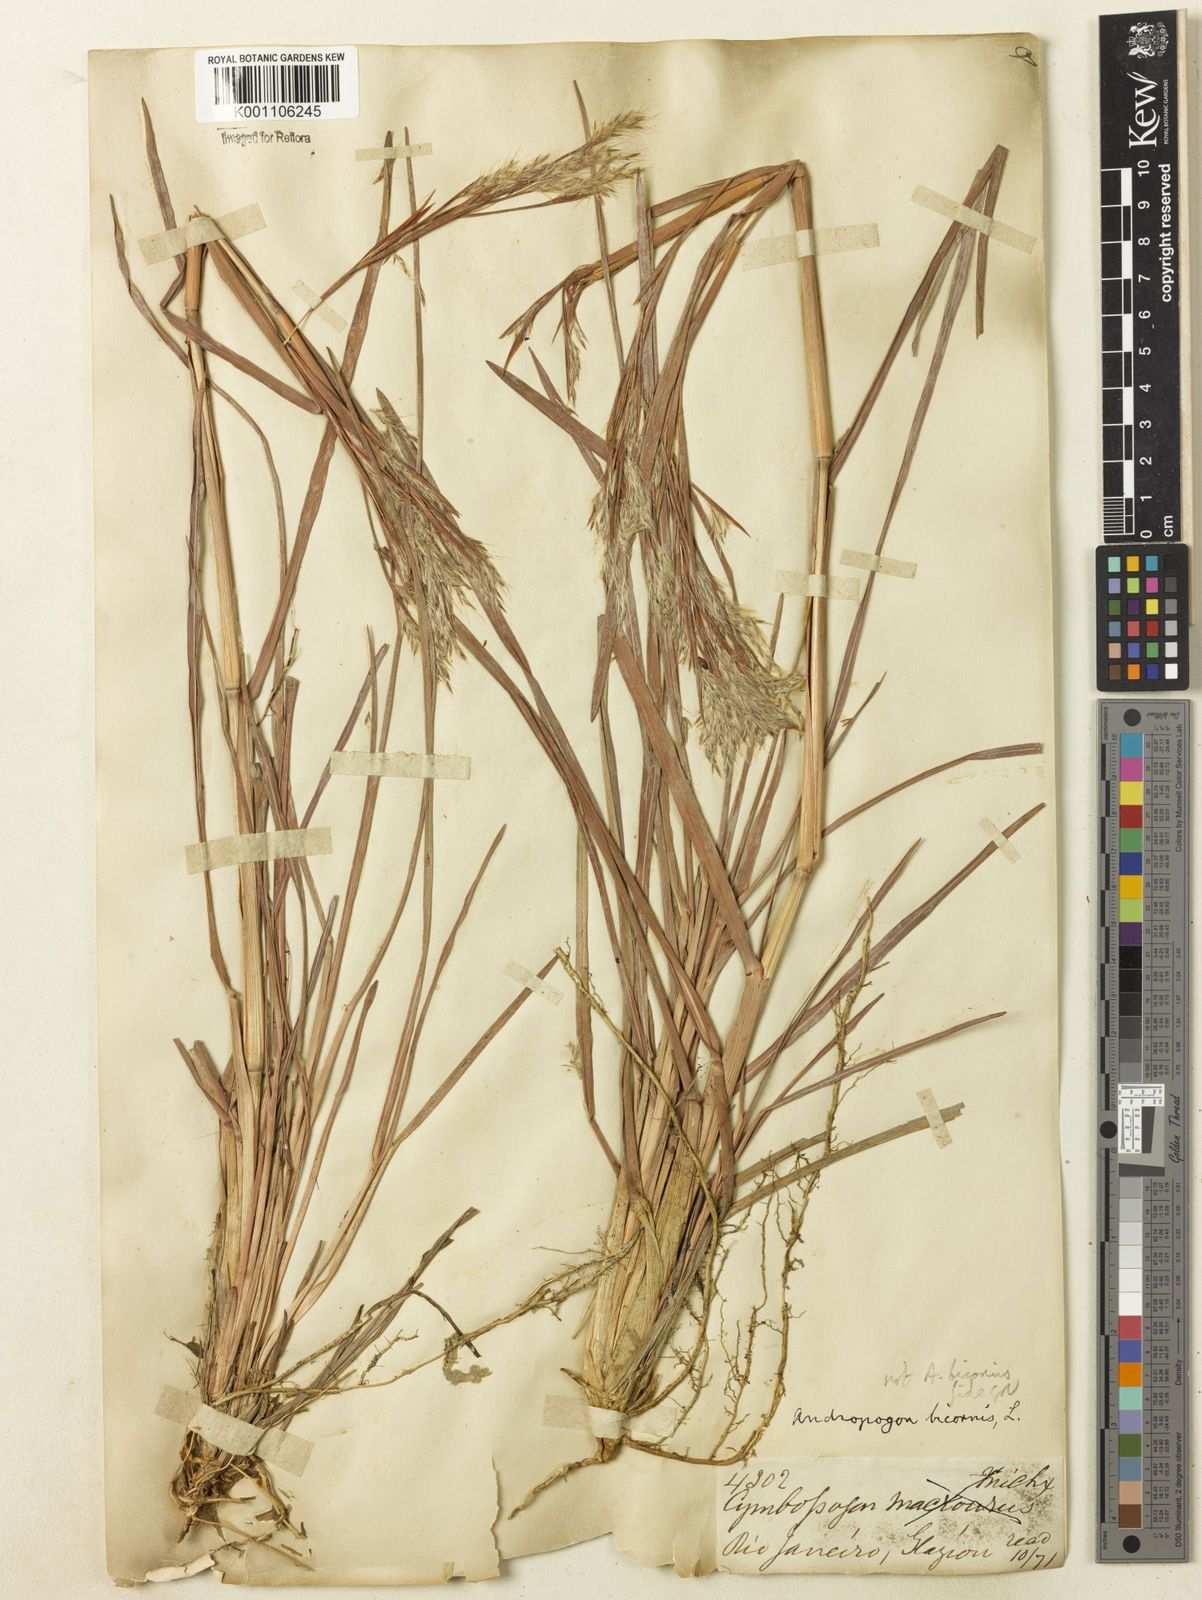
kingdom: Plantae
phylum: Tracheophyta
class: Liliopsida
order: Poales
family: Poaceae
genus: Andropogon
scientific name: Andropogon
